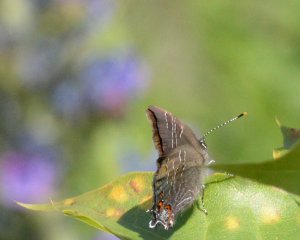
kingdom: Animalia
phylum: Arthropoda
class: Insecta
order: Lepidoptera
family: Lycaenidae
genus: Satyrium
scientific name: Satyrium liparops
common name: Striped Hairstreak
